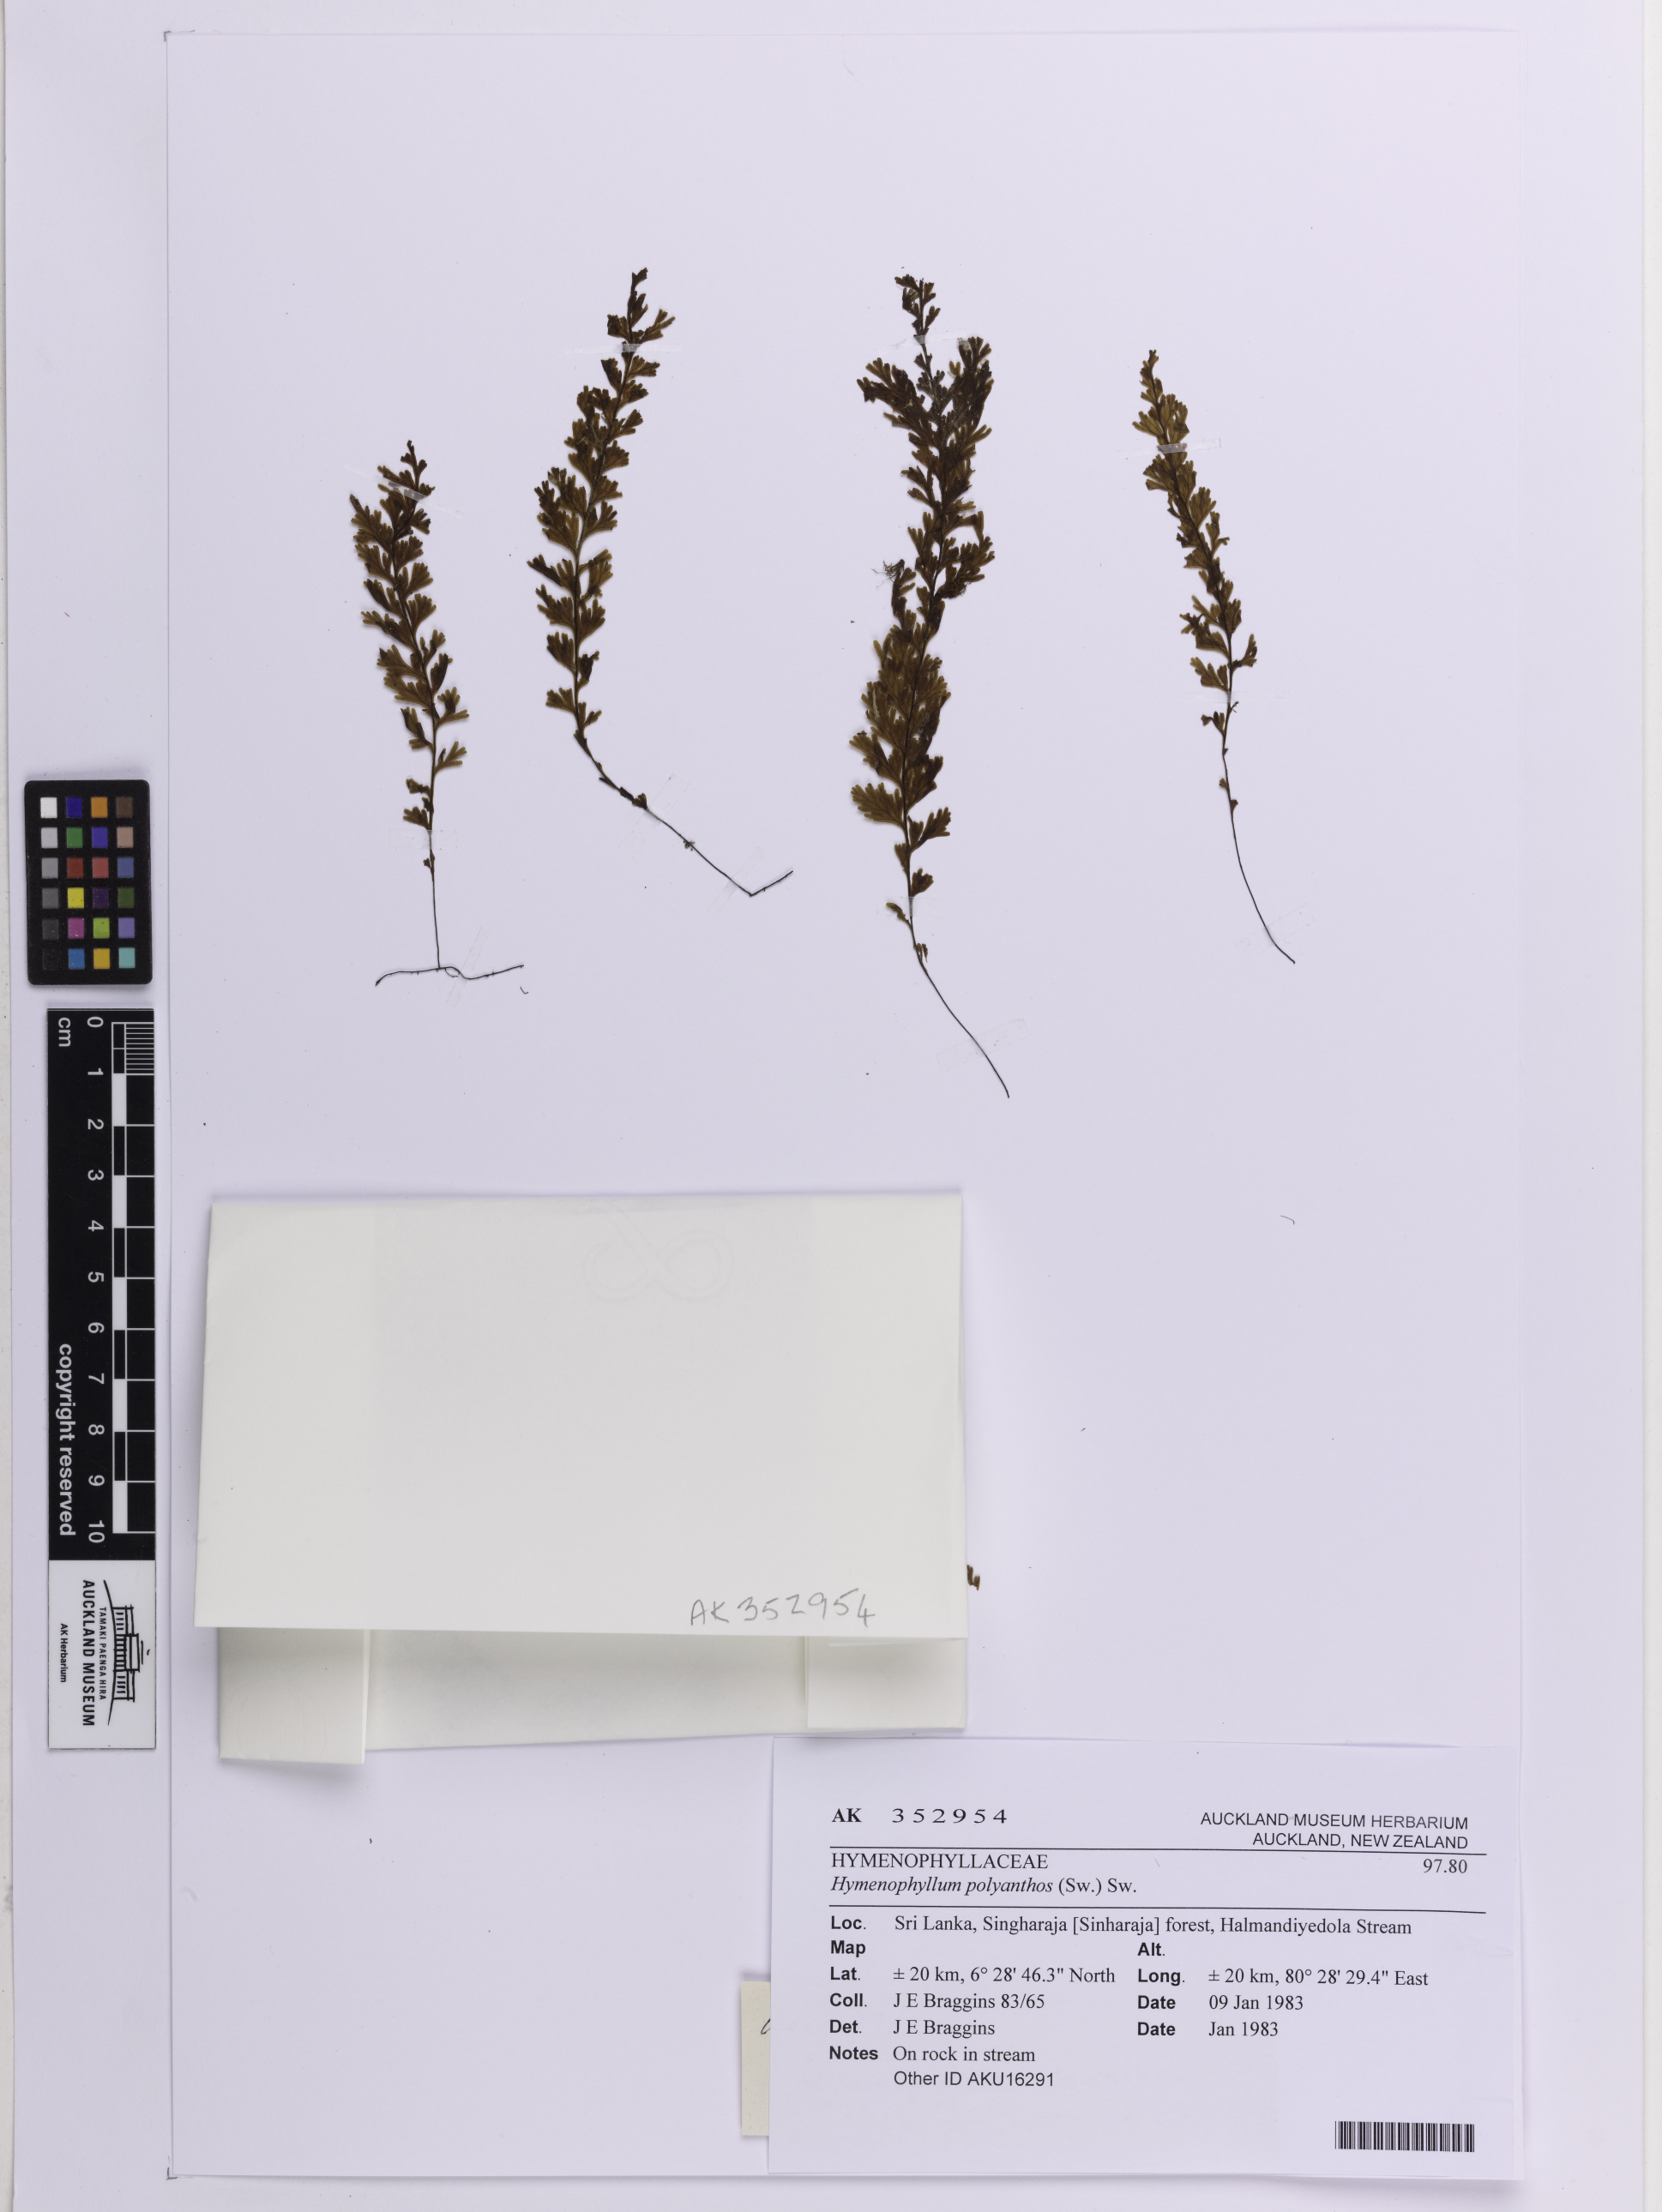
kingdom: Plantae
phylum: Tracheophyta
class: Polypodiopsida
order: Hymenophyllales
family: Hymenophyllaceae
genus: Hymenophyllum
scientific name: Hymenophyllum polyanthos
